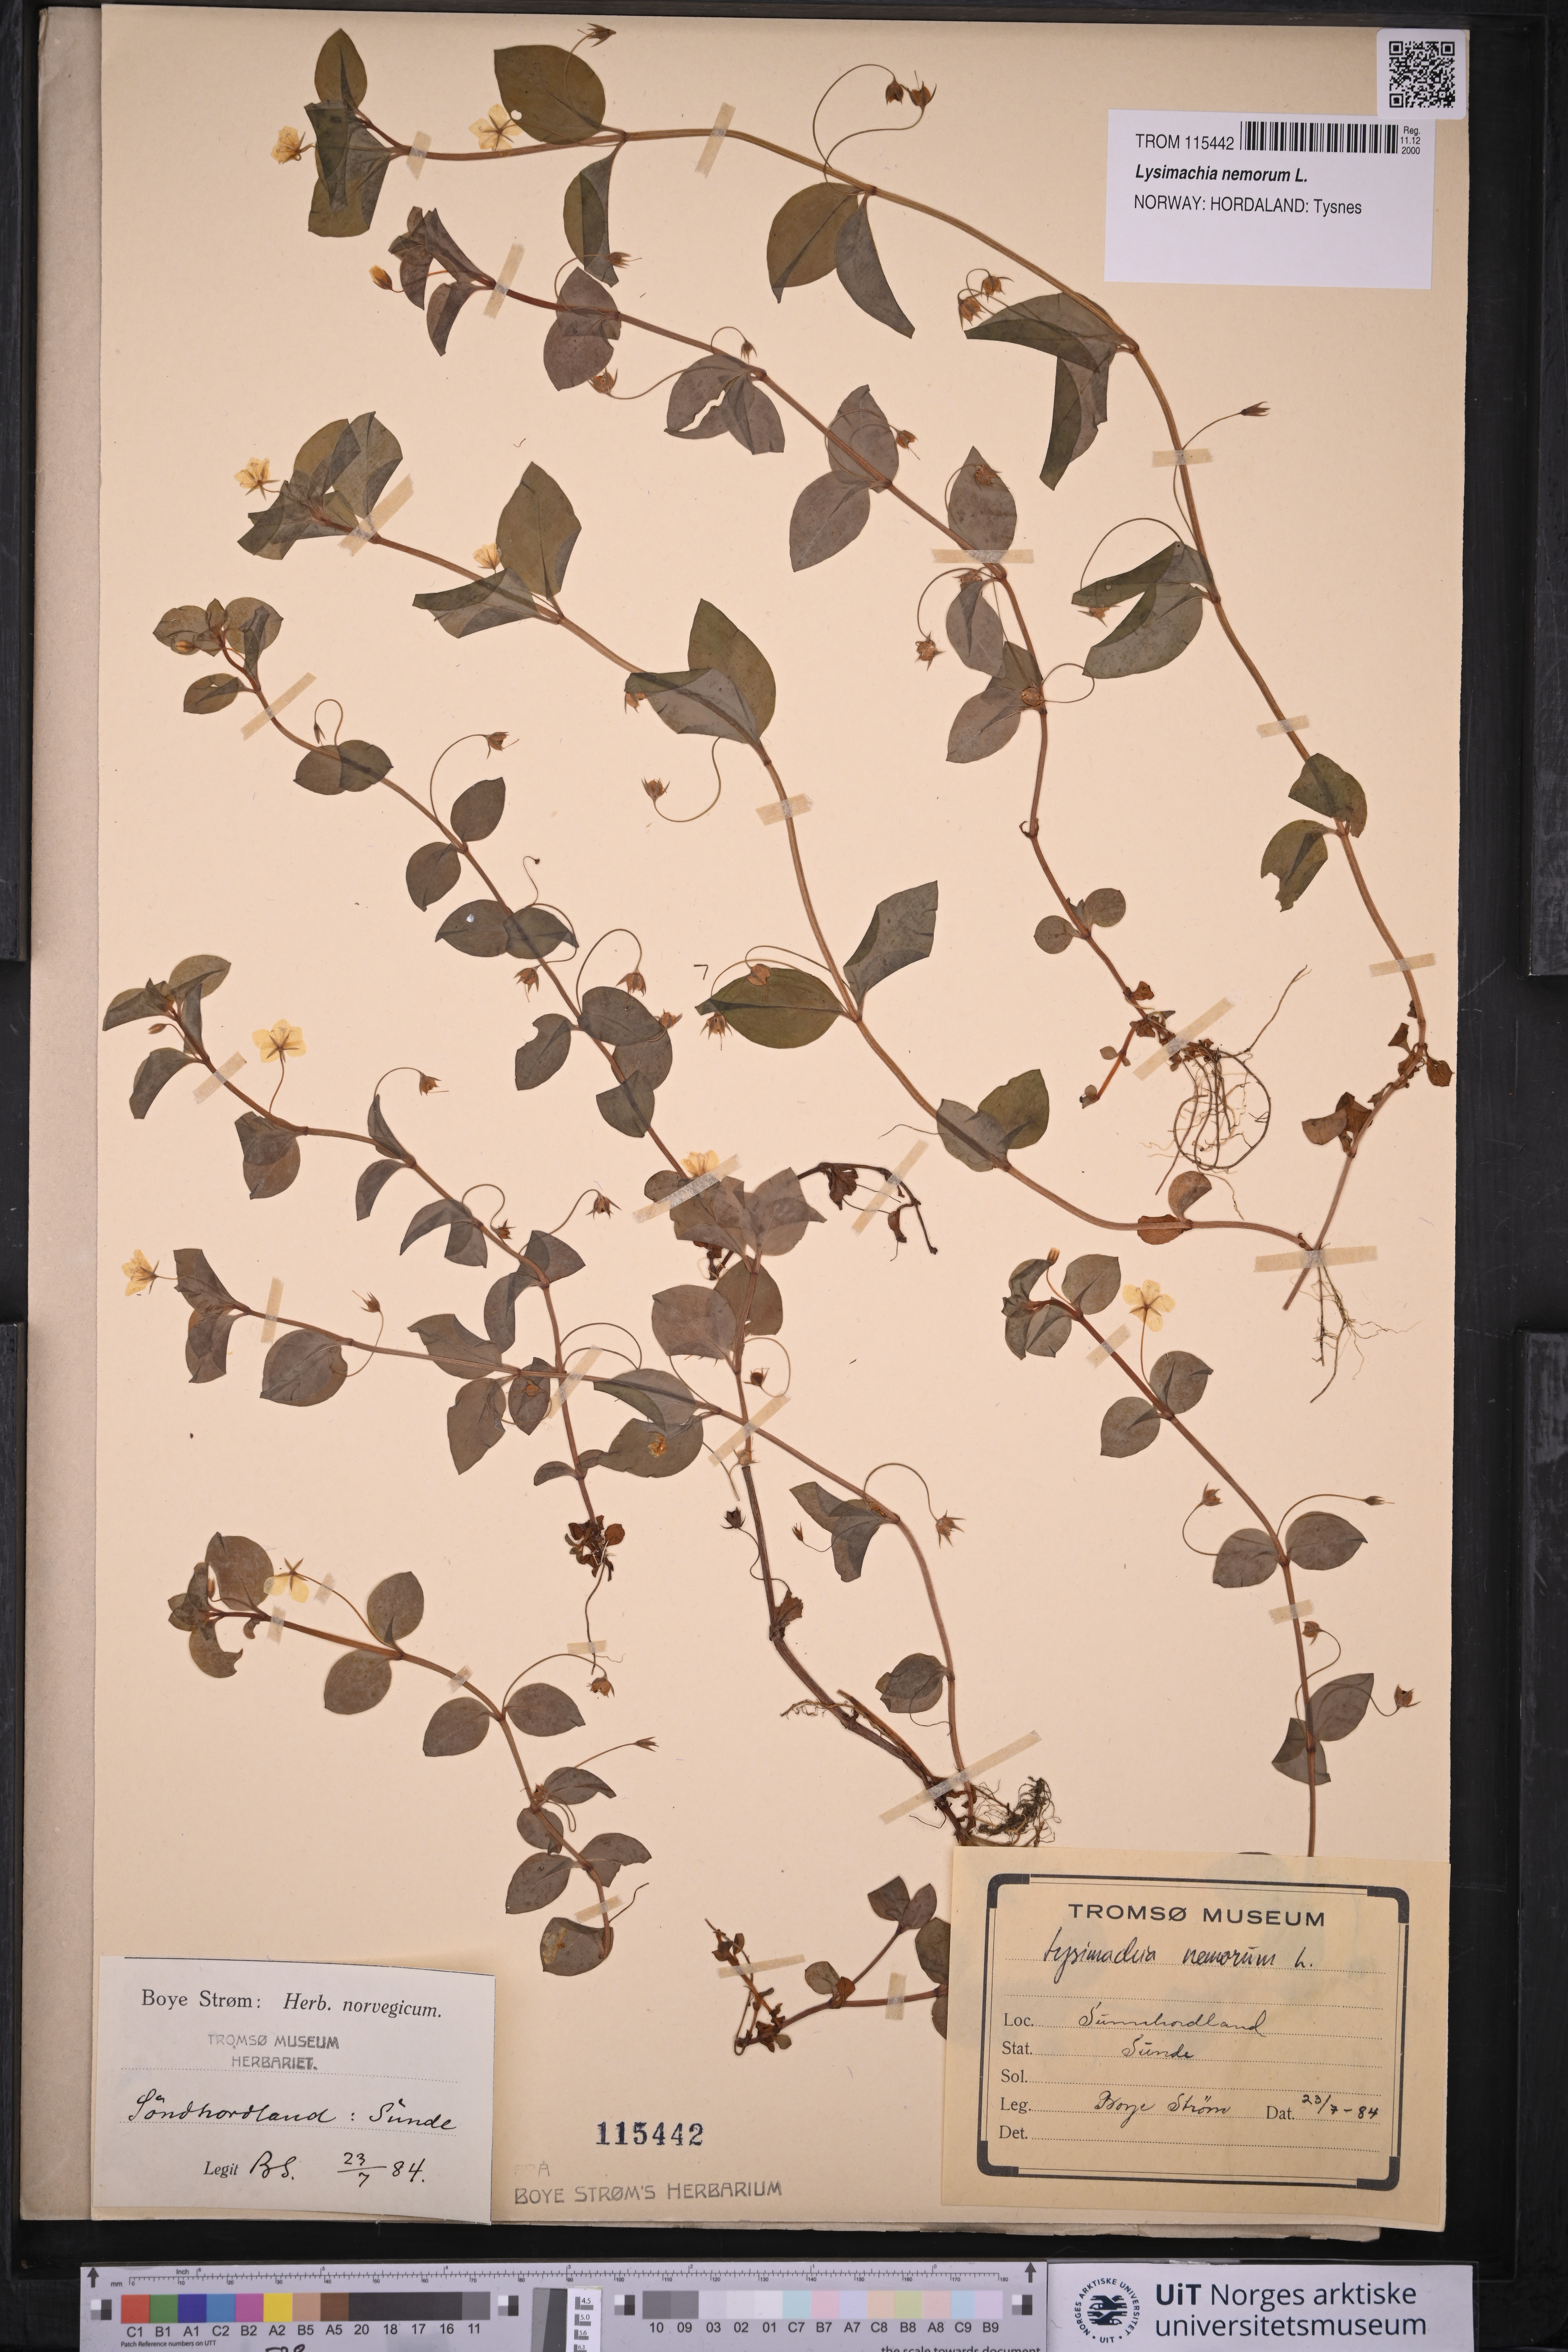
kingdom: Plantae
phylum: Tracheophyta
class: Magnoliopsida
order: Ericales
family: Primulaceae
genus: Lysimachia
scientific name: Lysimachia nemorum
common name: Yellow pimpernel
